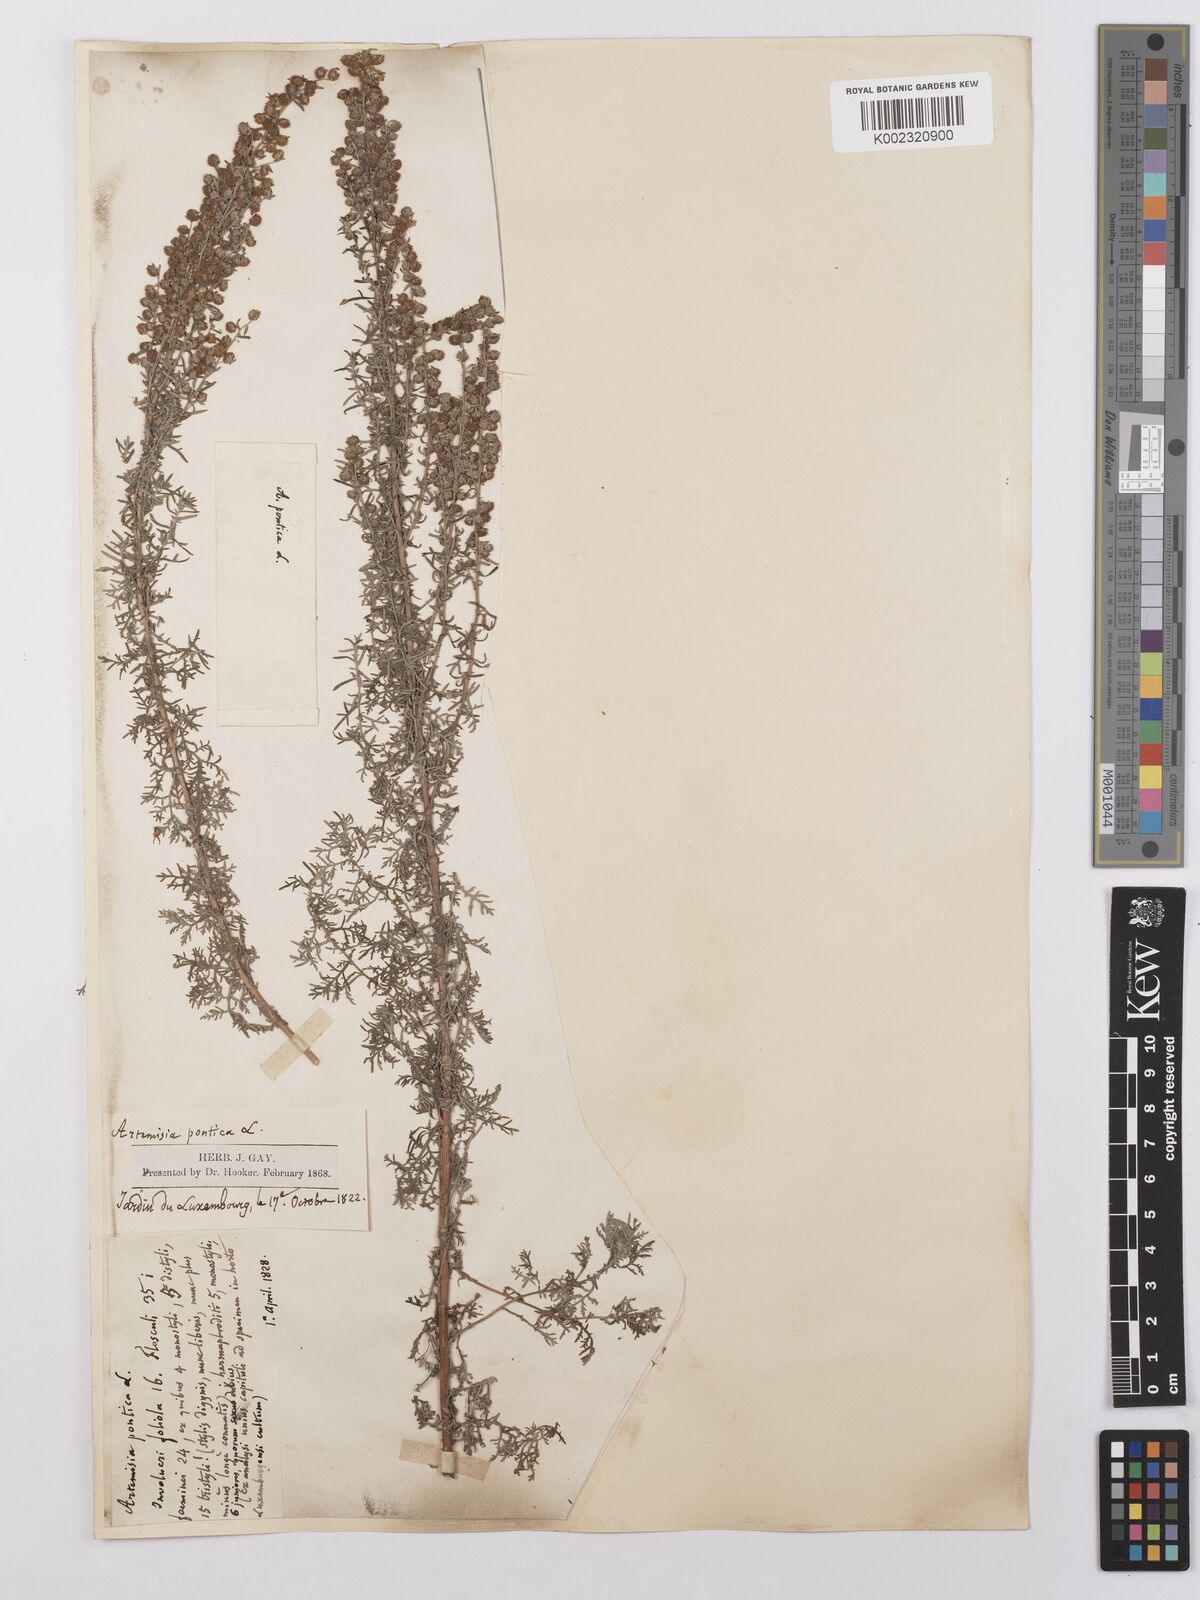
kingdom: Plantae
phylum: Tracheophyta
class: Magnoliopsida
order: Asterales
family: Asteraceae
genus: Artemisia
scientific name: Artemisia pontica
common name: Roman wormwood
